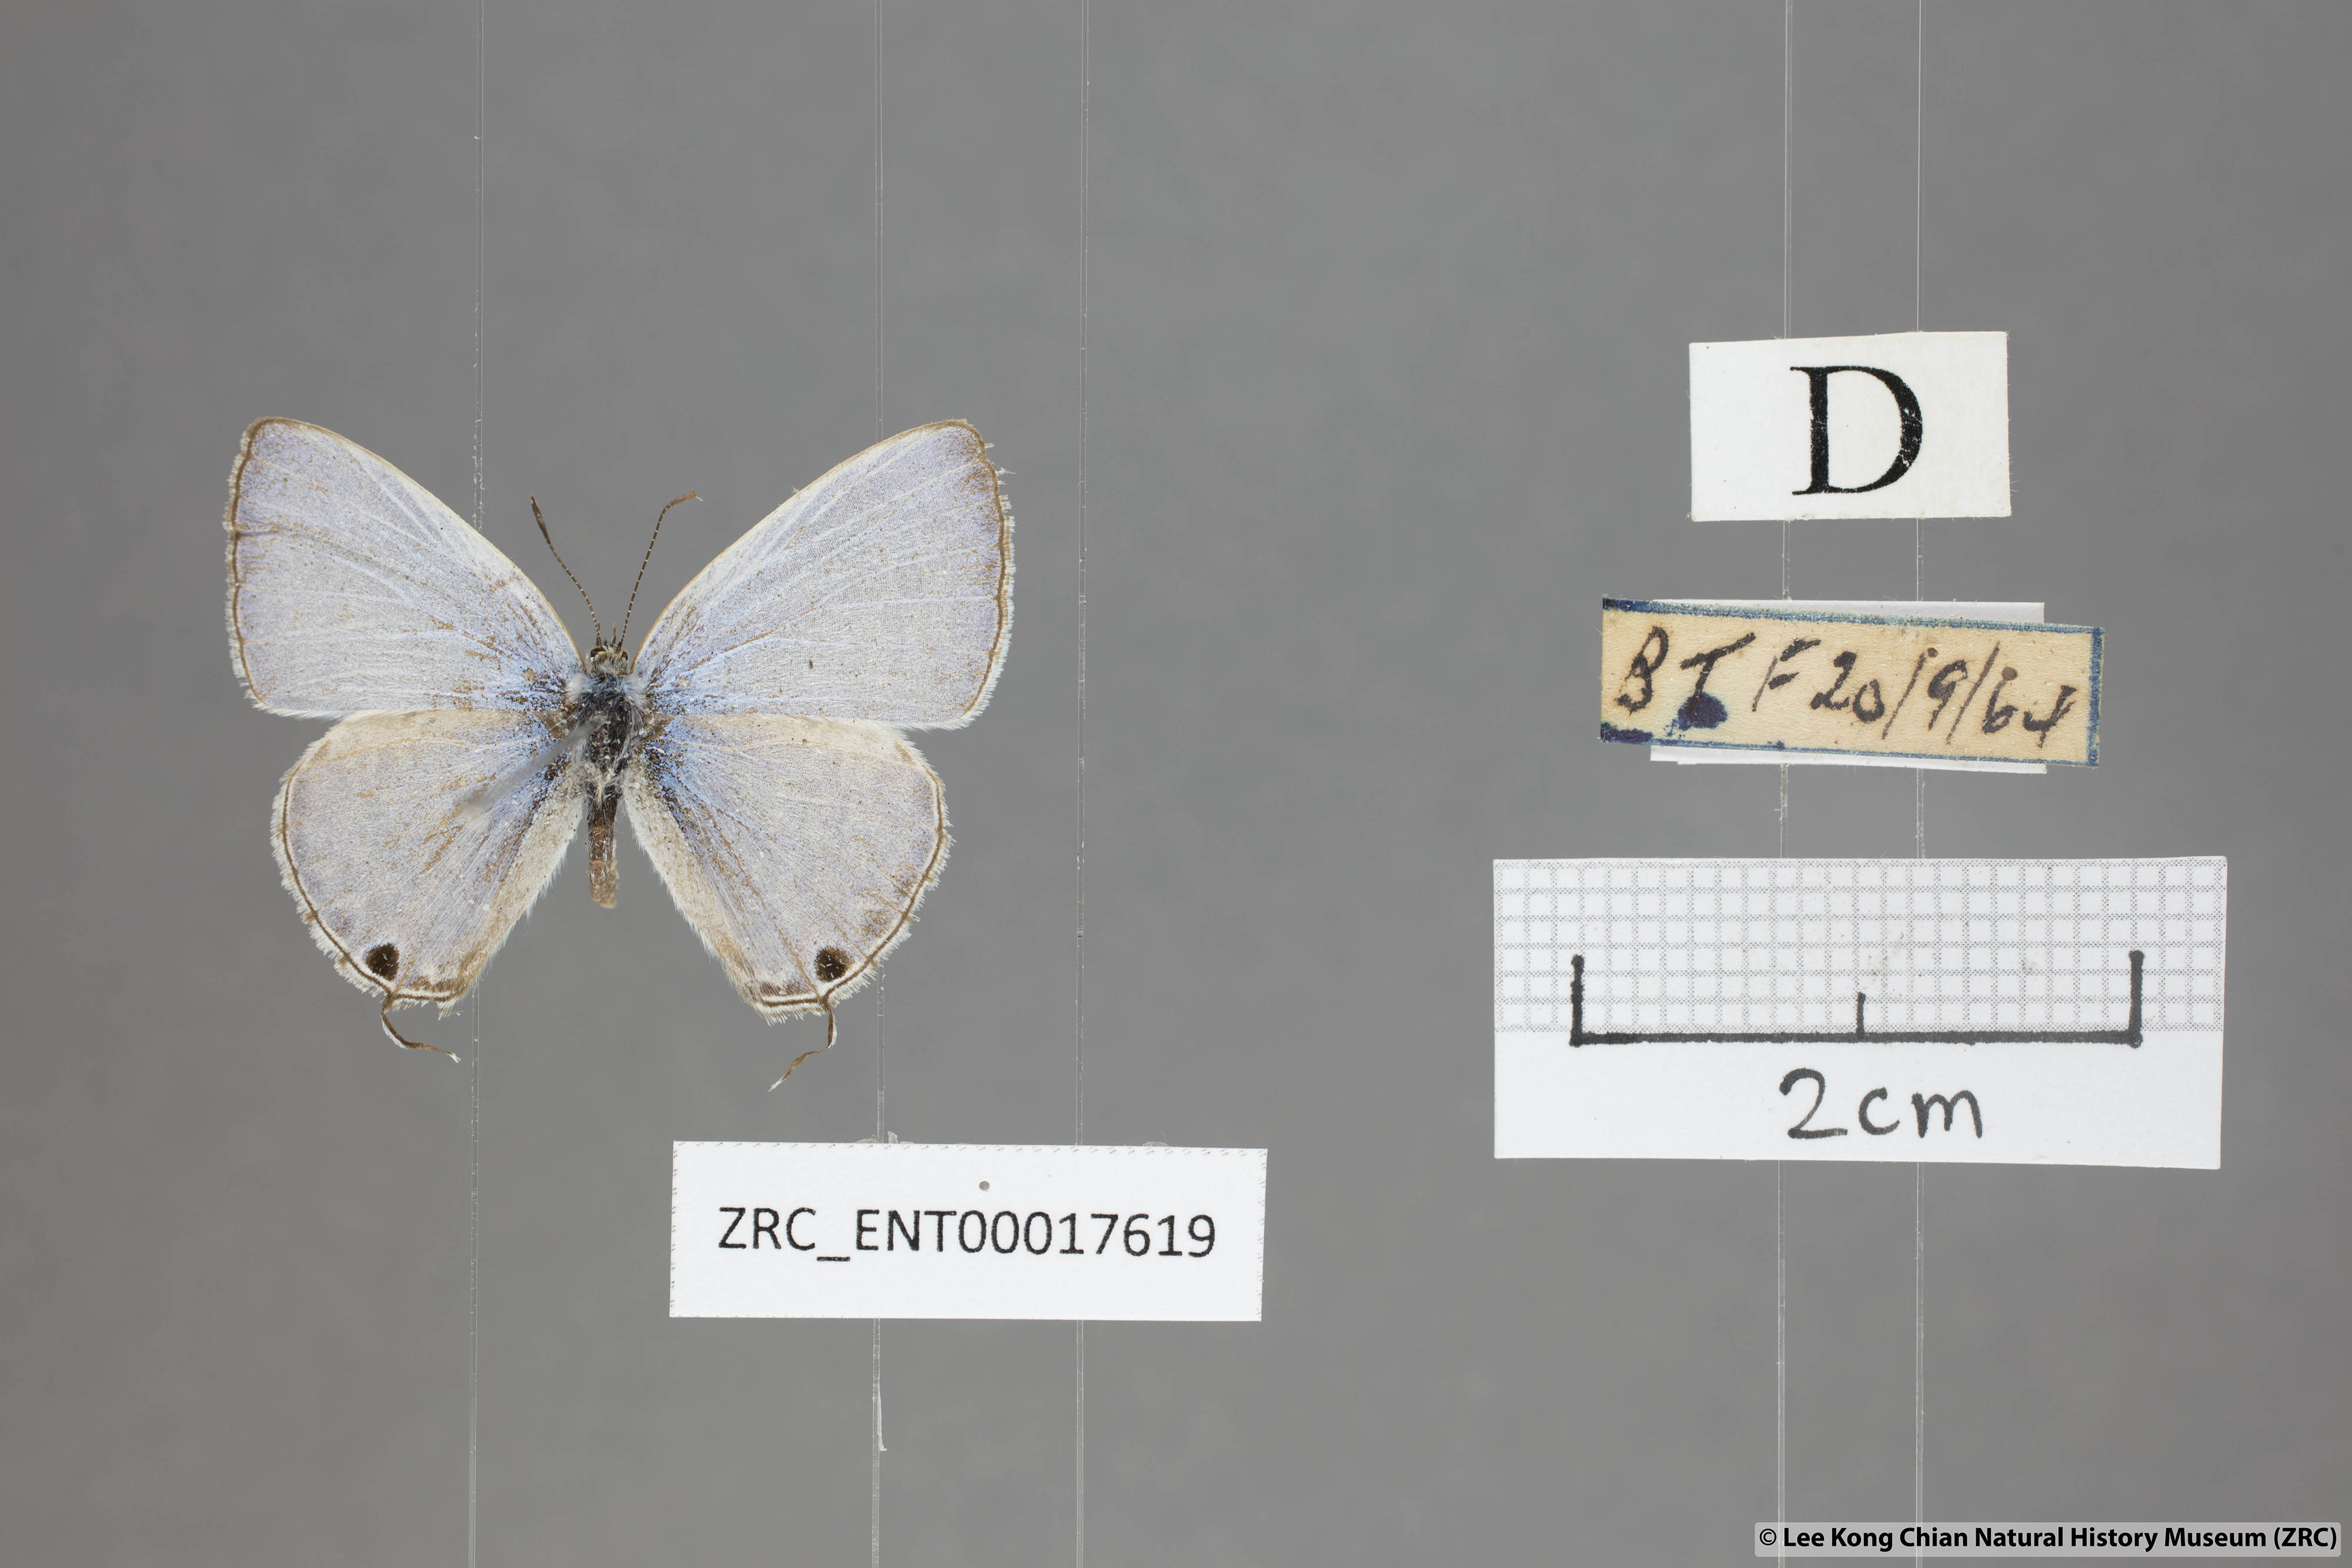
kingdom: Animalia
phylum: Arthropoda
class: Insecta
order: Lepidoptera
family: Lycaenidae
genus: Catochrysops
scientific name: Catochrysops panormus
